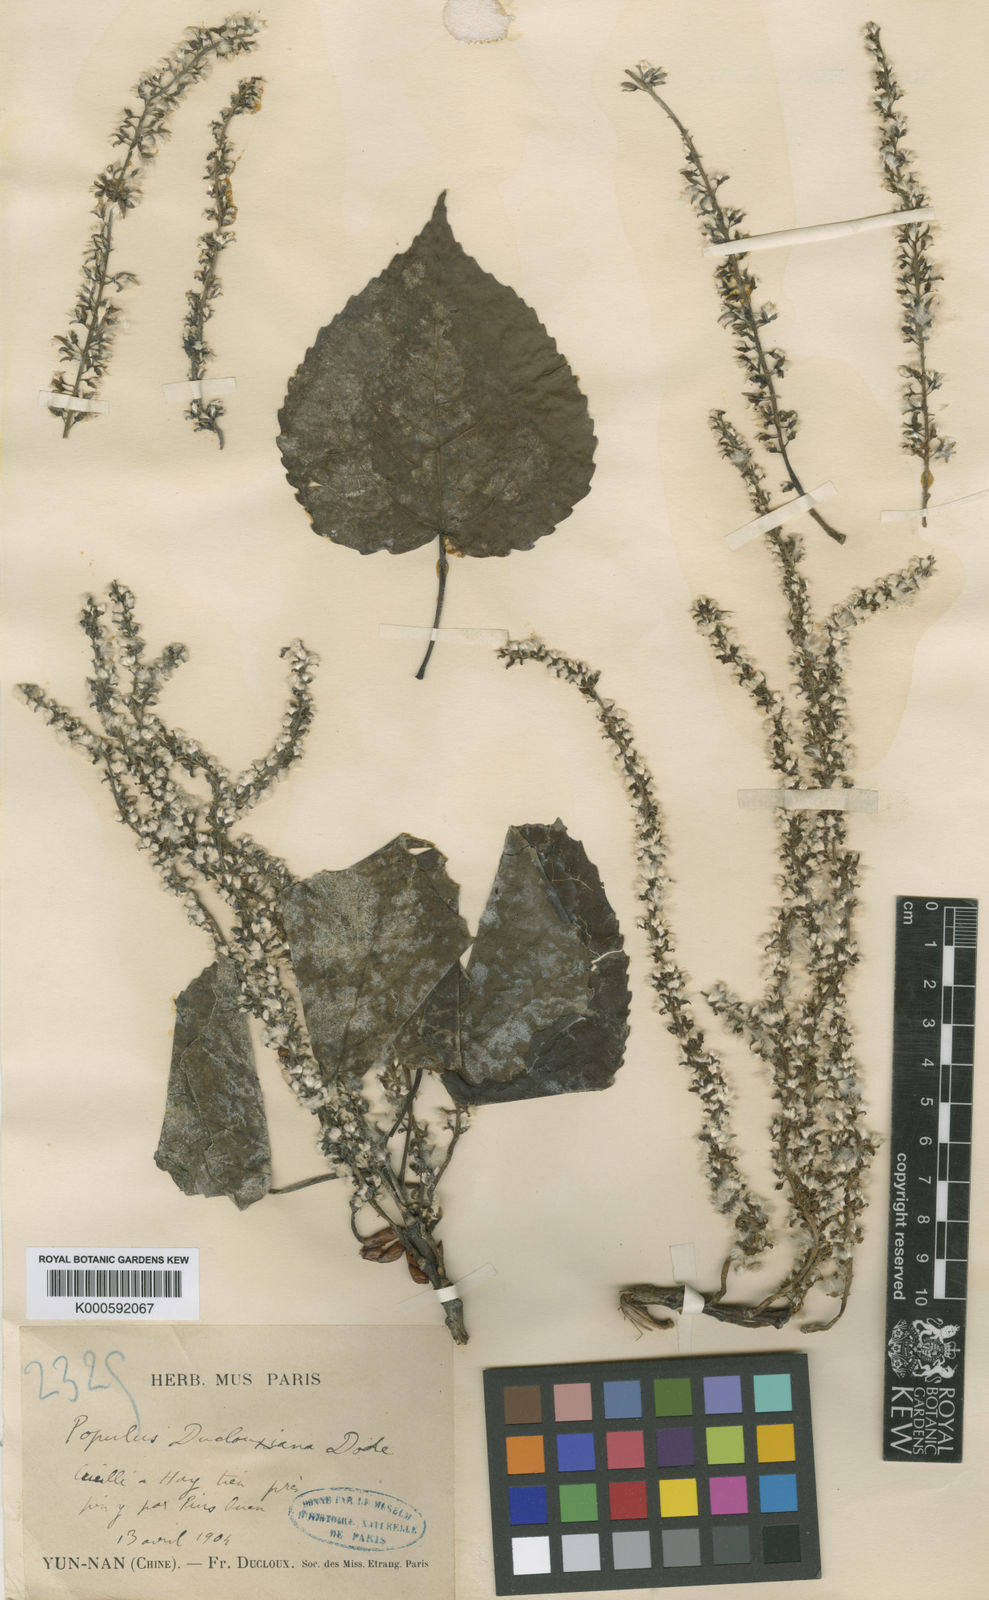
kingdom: Plantae
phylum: Tracheophyta
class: Magnoliopsida
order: Malpighiales
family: Salicaceae
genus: Populus
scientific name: Populus rotundifolia
